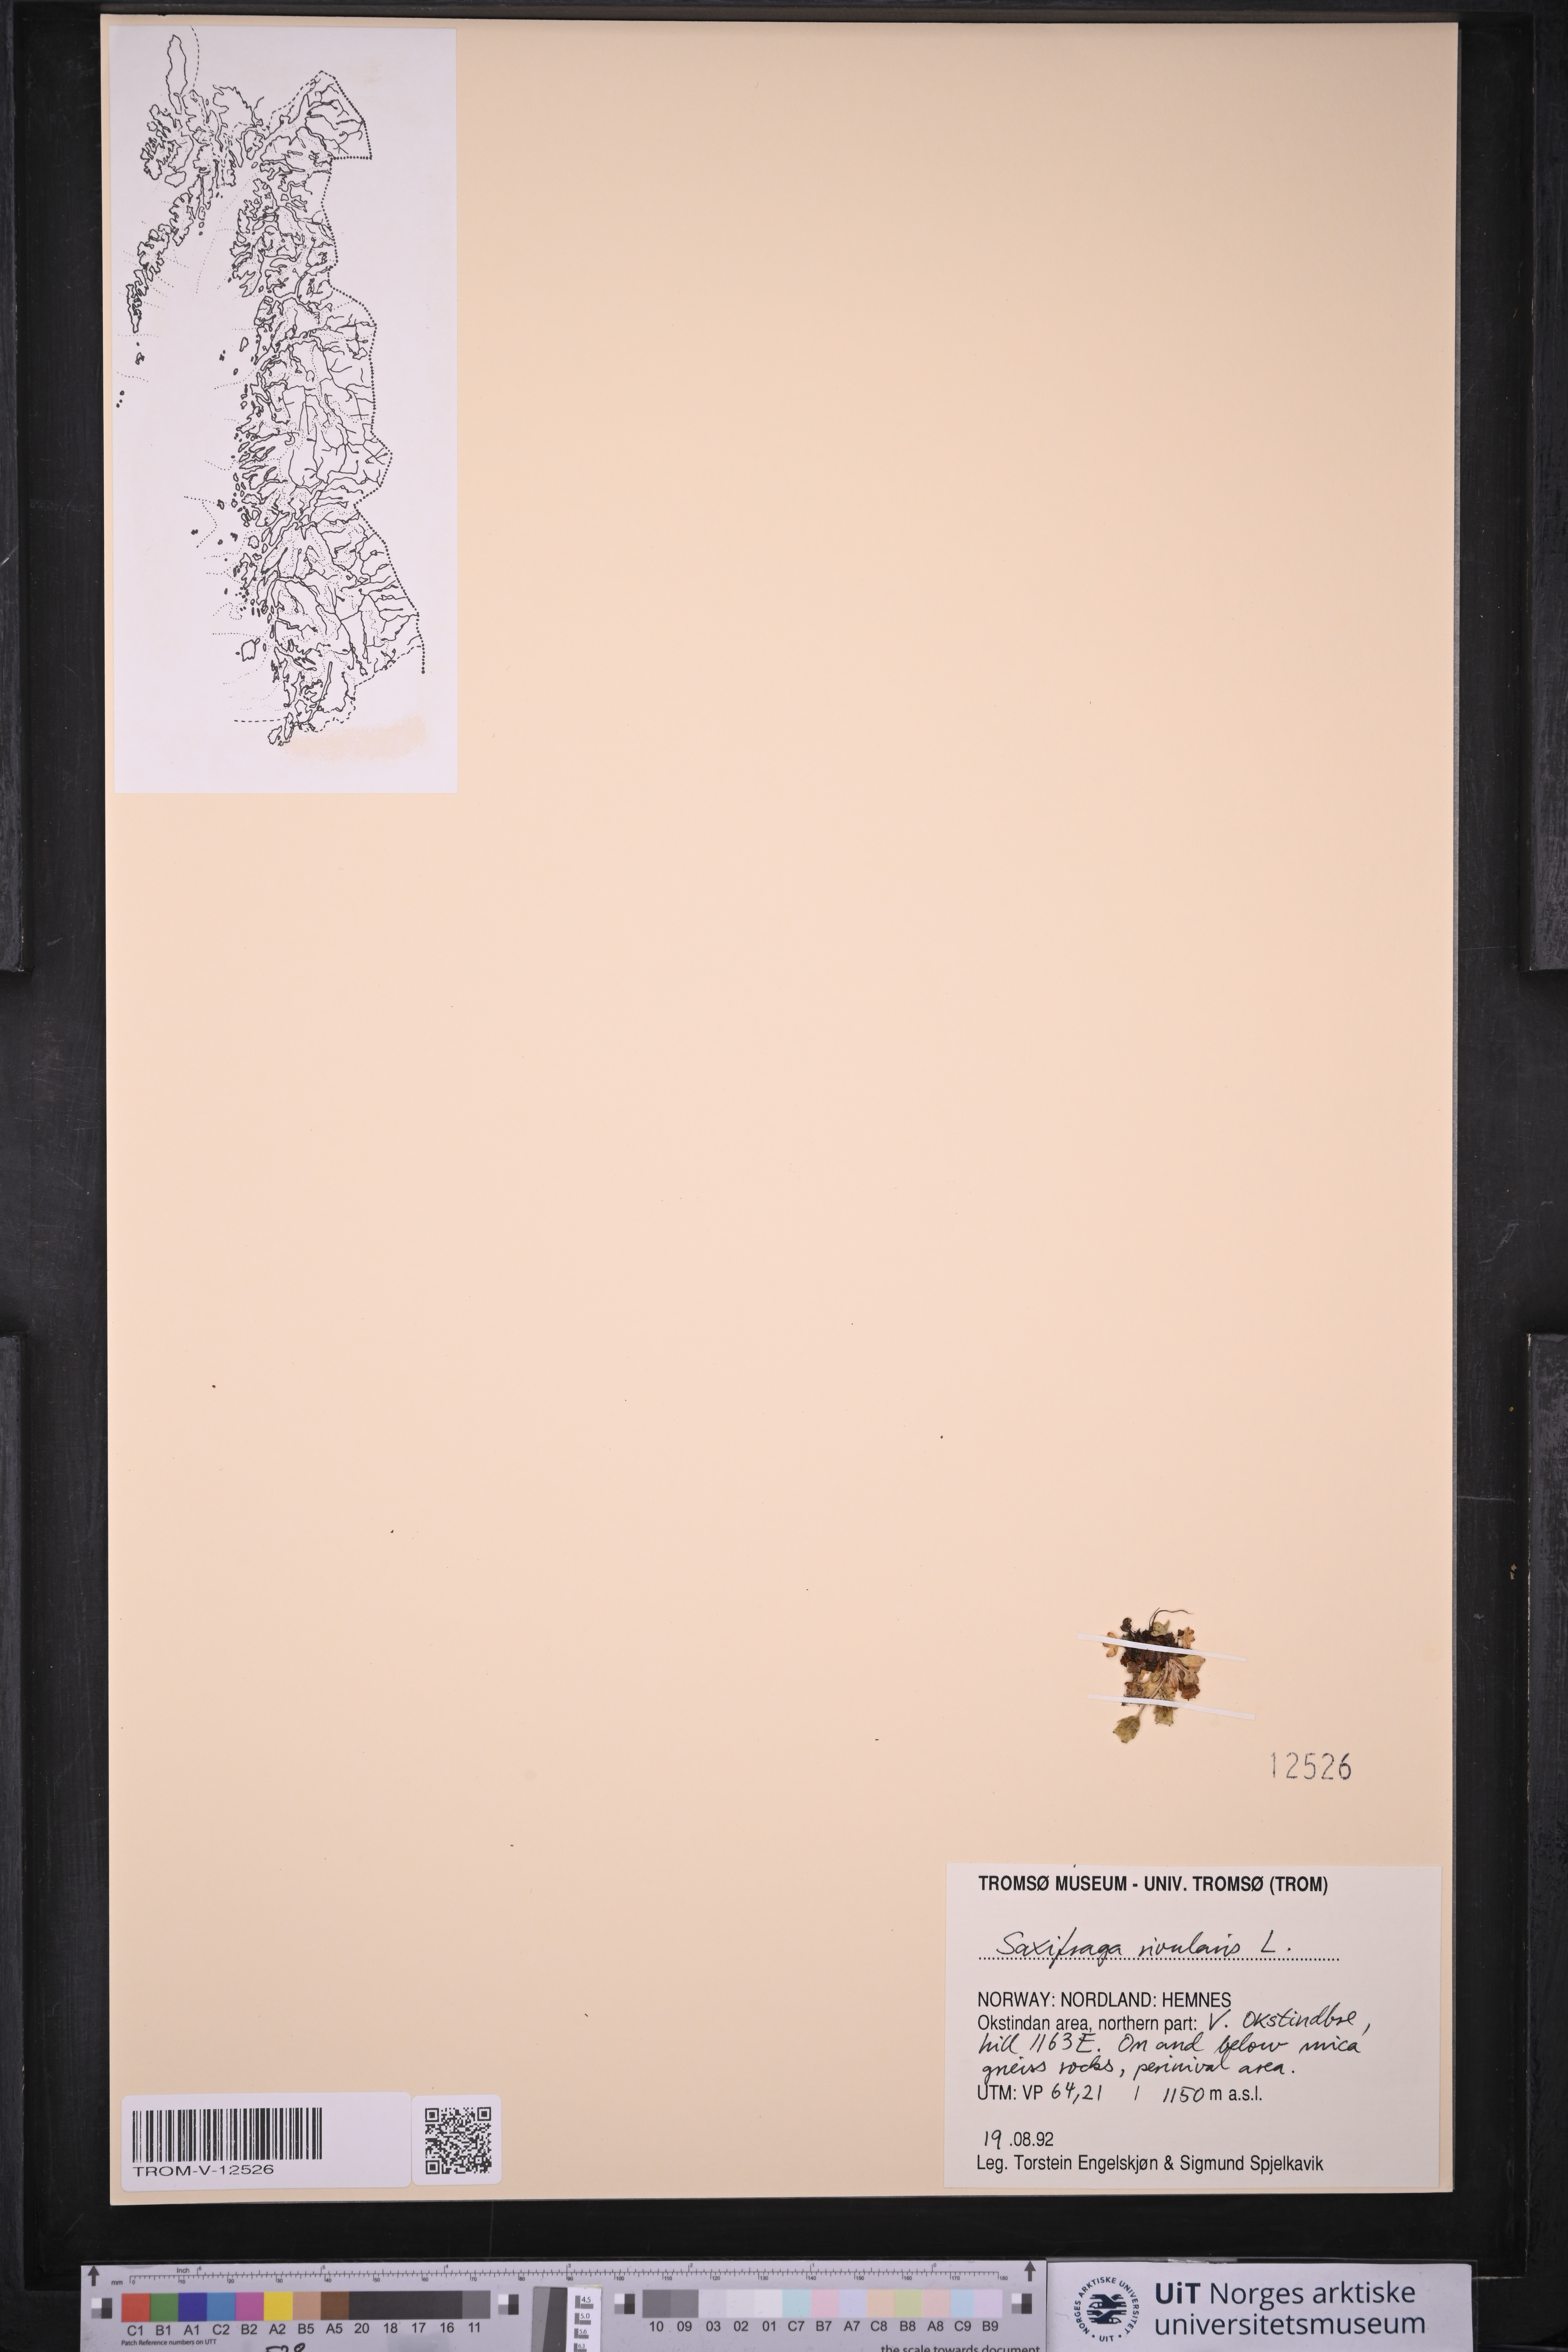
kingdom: Plantae
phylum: Tracheophyta
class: Magnoliopsida
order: Saxifragales
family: Saxifragaceae
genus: Micranthes
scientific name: Micranthes nivalis
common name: Alpine saxifrage
